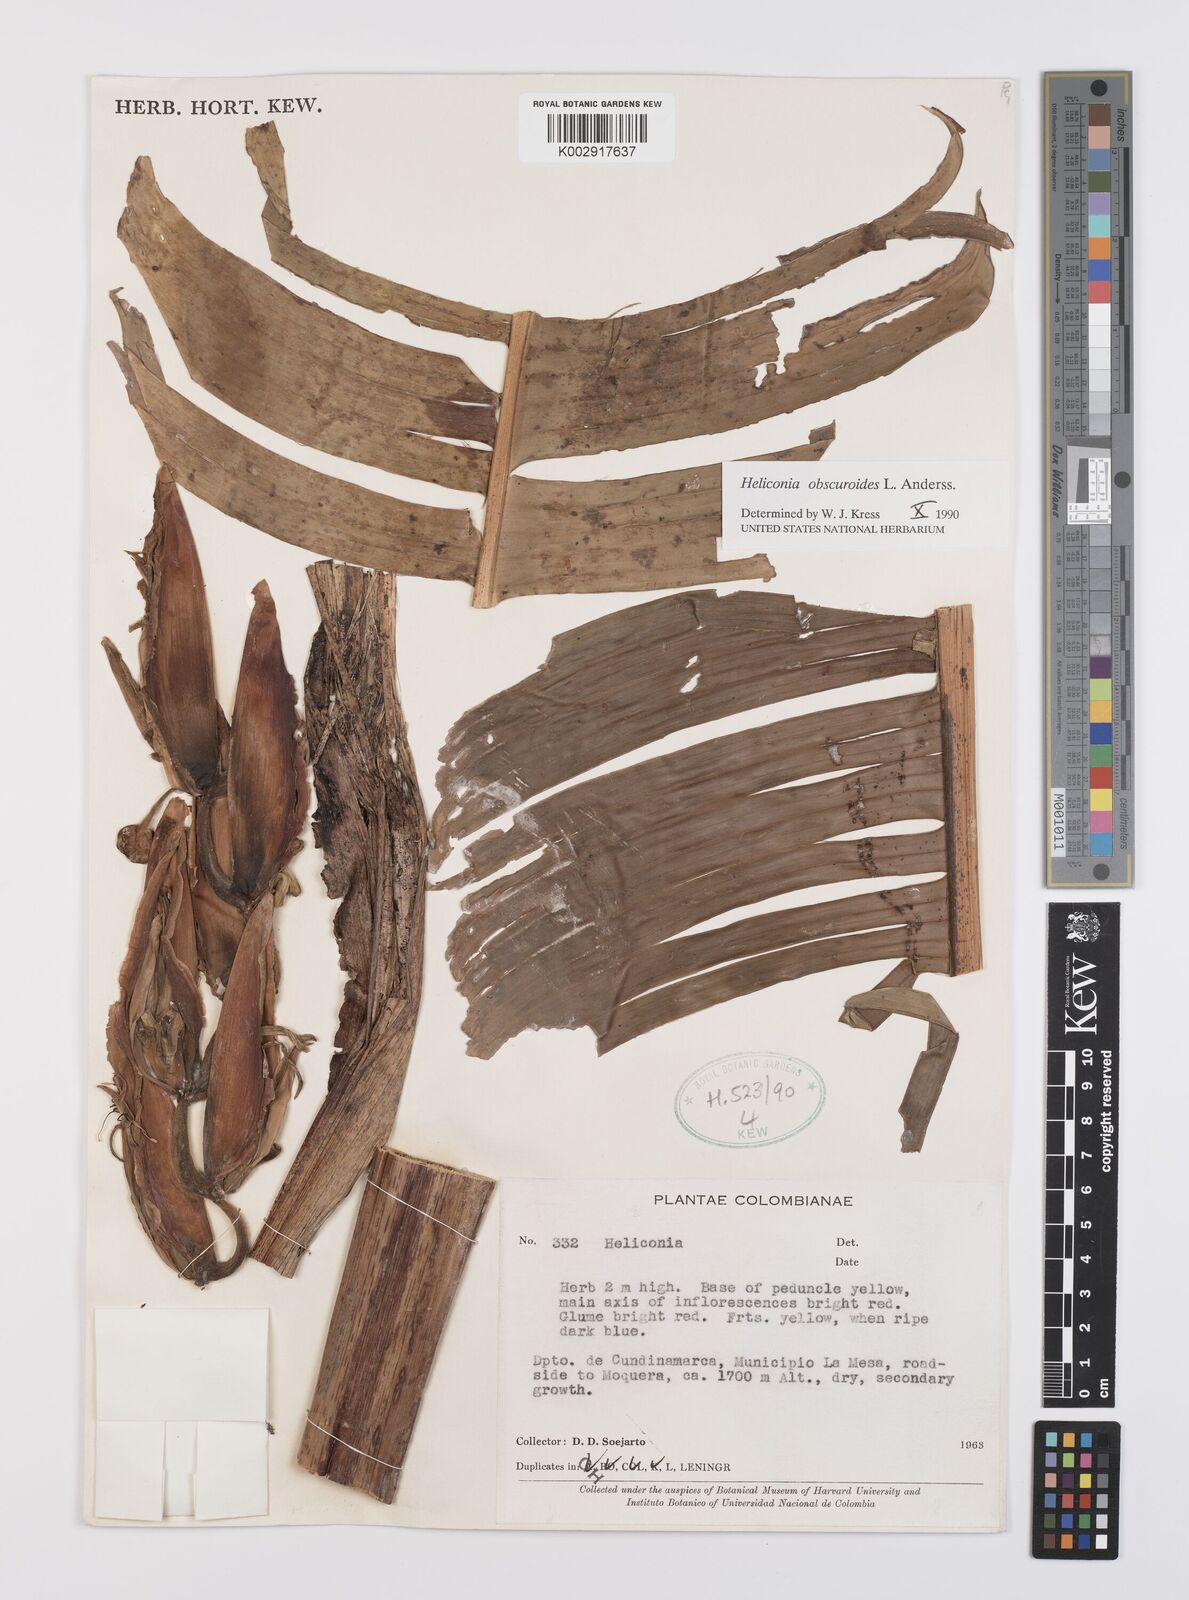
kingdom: Plantae
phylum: Tracheophyta
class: Liliopsida
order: Zingiberales
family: Heliconiaceae
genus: Heliconia
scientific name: Heliconia obscuroides
